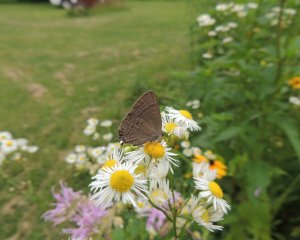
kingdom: Animalia
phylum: Arthropoda
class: Insecta
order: Lepidoptera
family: Lycaenidae
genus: Strymon
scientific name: Strymon caryaevorus
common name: Hickory Hairstreak
